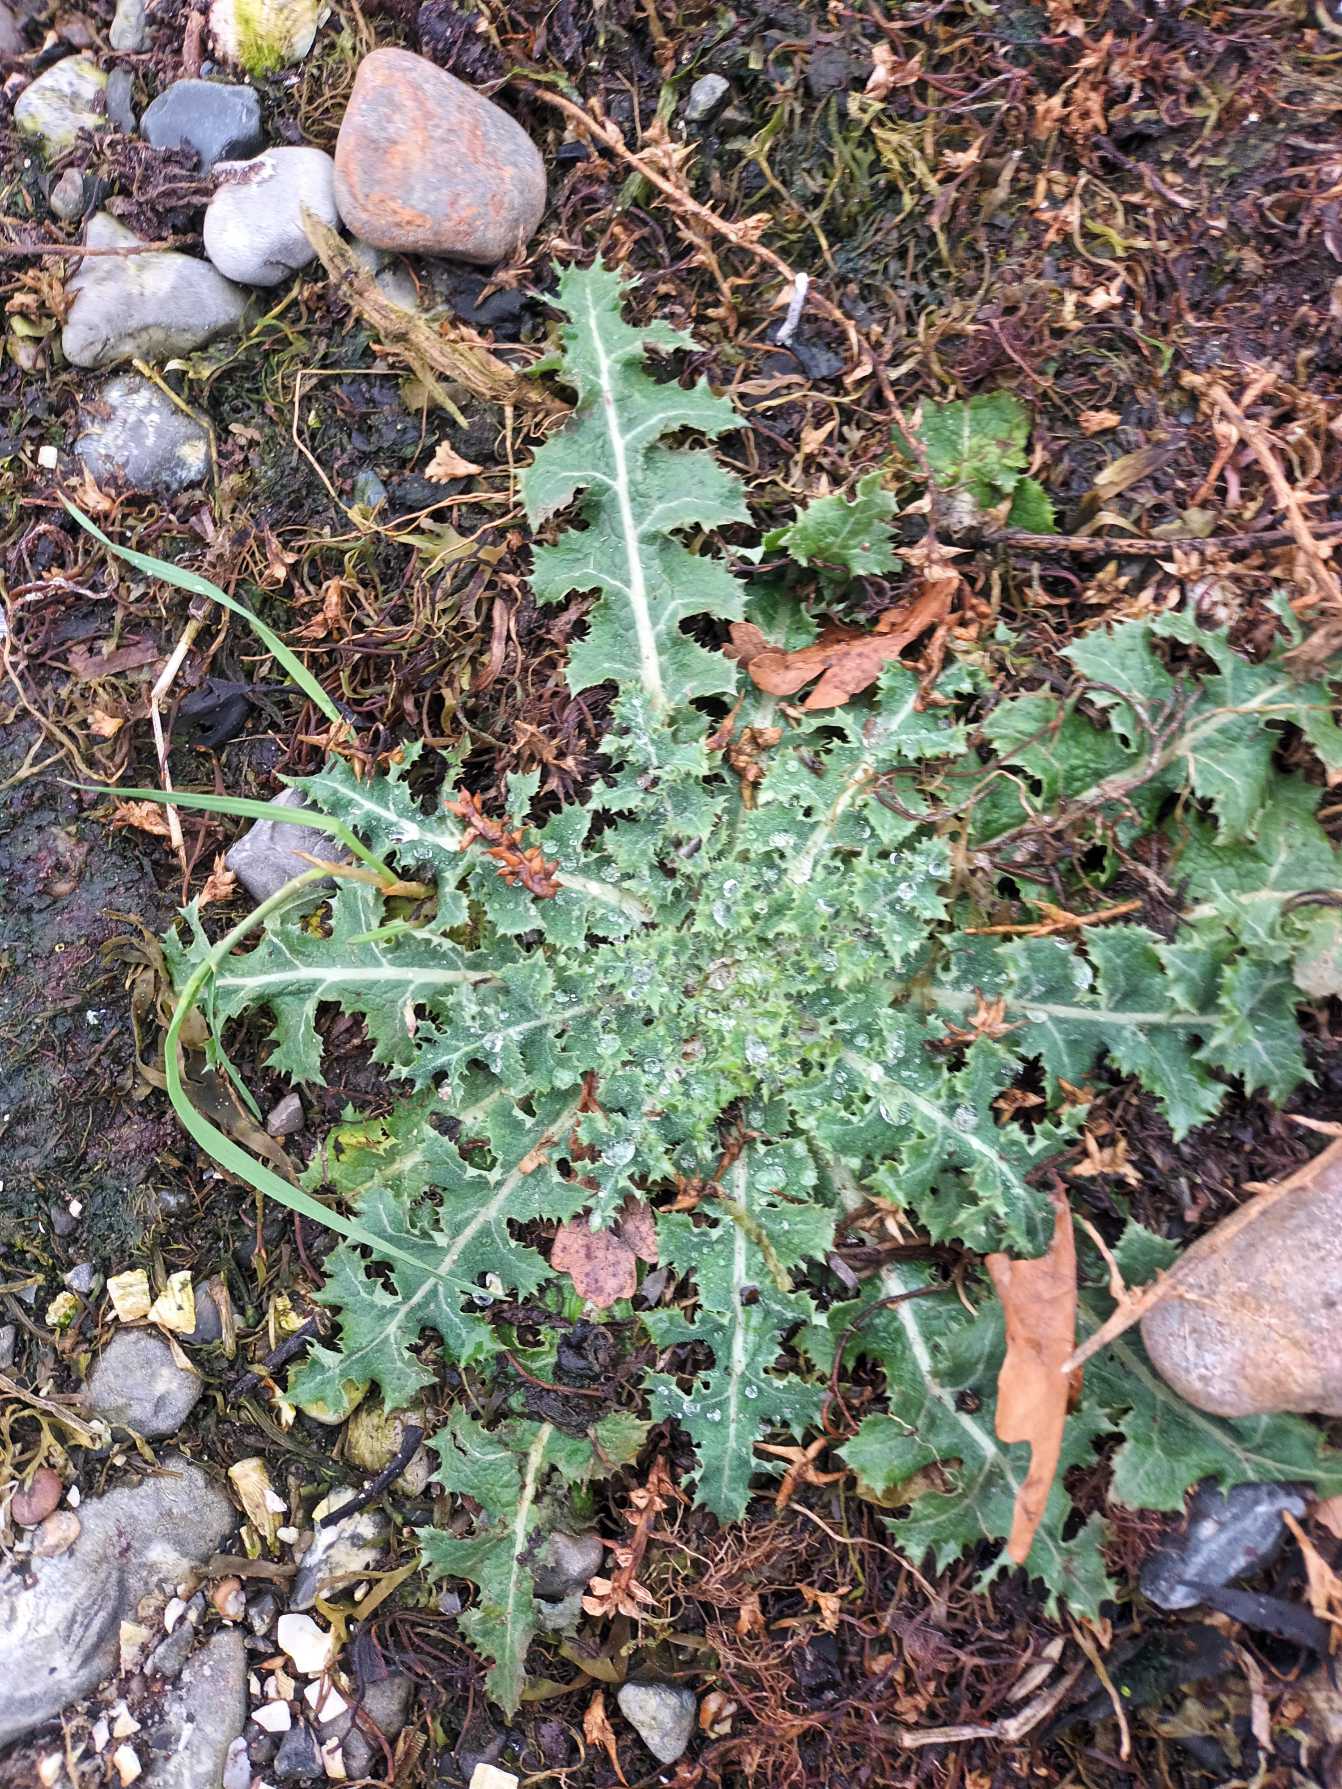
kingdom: Plantae
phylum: Tracheophyta
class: Magnoliopsida
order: Asterales
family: Asteraceae
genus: Sonchus
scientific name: Sonchus asper
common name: Ru svinemælk
